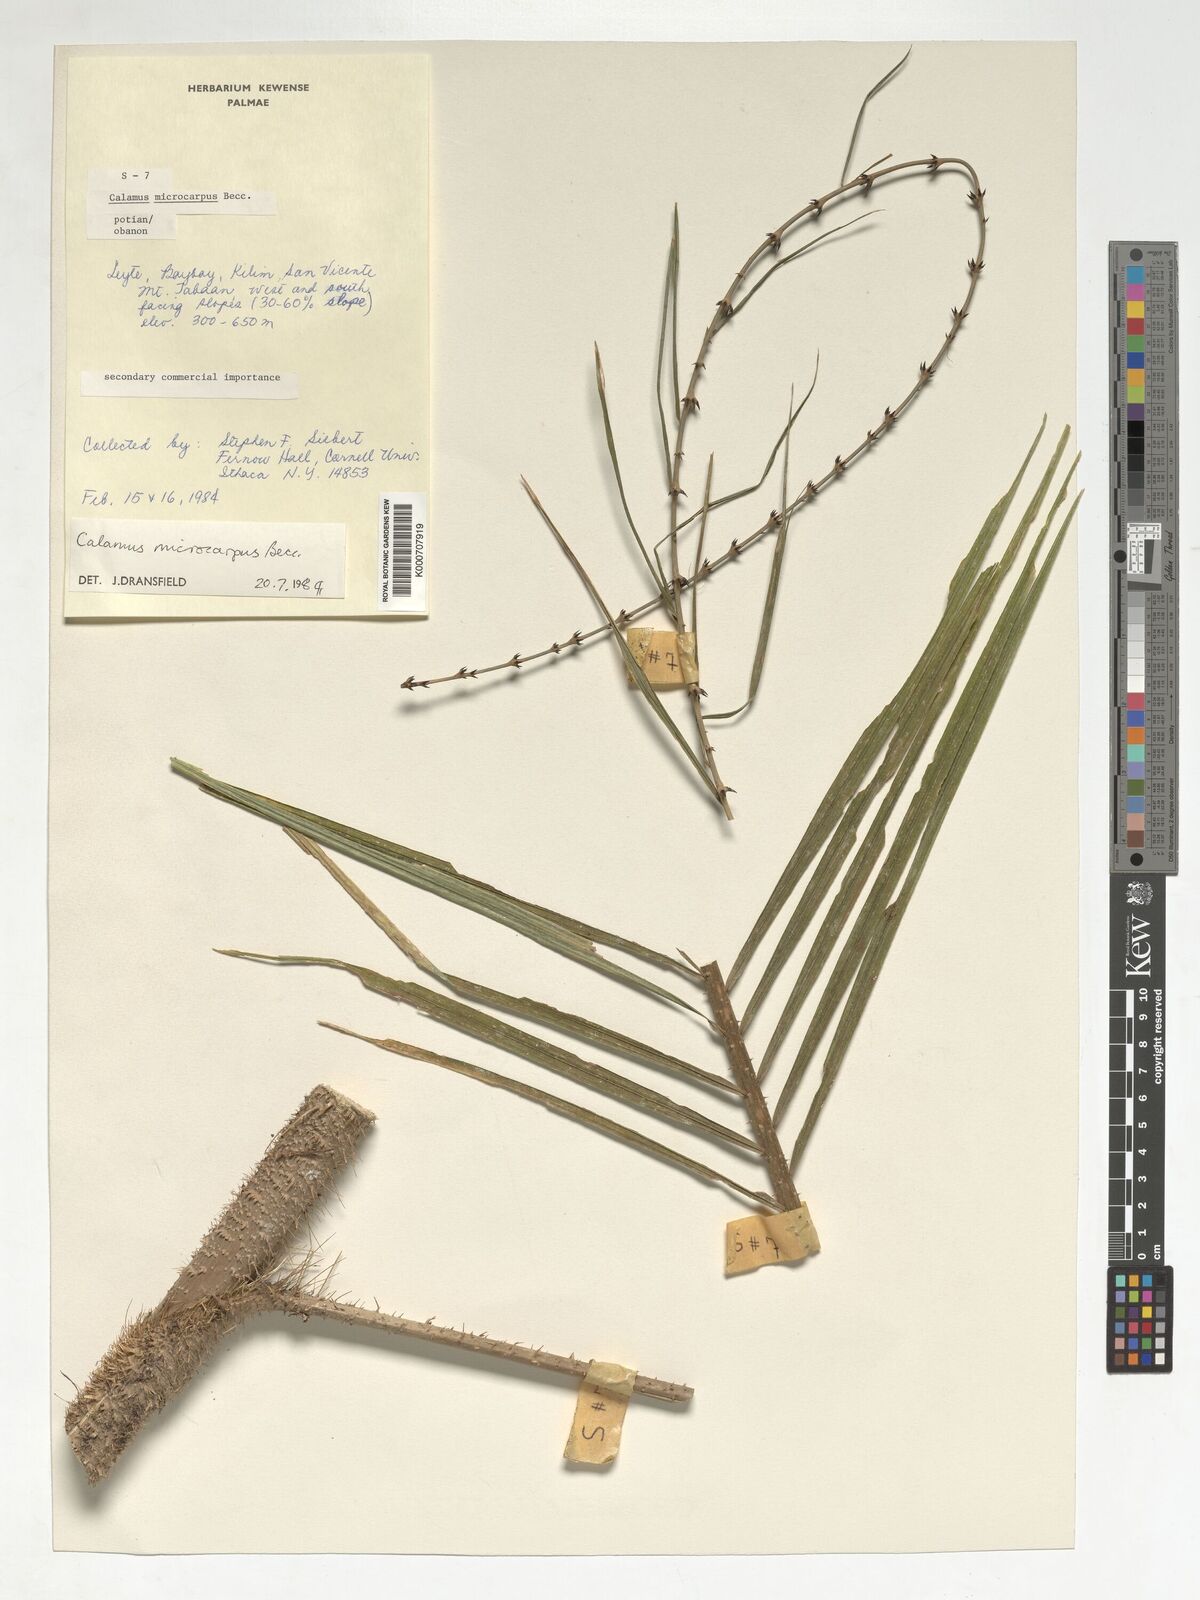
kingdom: Plantae
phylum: Tracheophyta
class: Liliopsida
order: Arecales
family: Arecaceae
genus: Calamus
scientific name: Calamus siphonospathus
